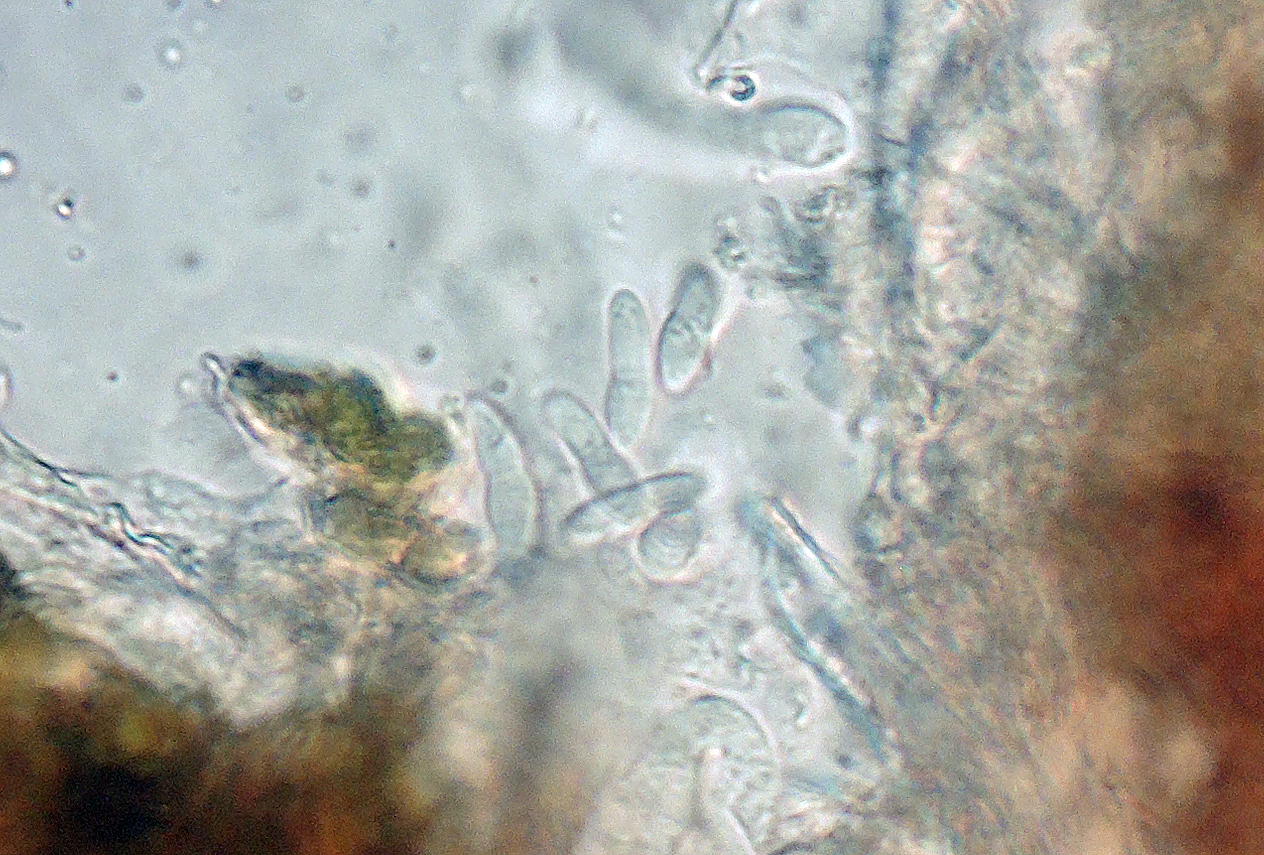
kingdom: Fungi
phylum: Ascomycota
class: Dothideomycetes
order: Mycosphaerellales
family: Mycosphaerellaceae
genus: Mycosphaerella
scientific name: Mycosphaerella clymenia
